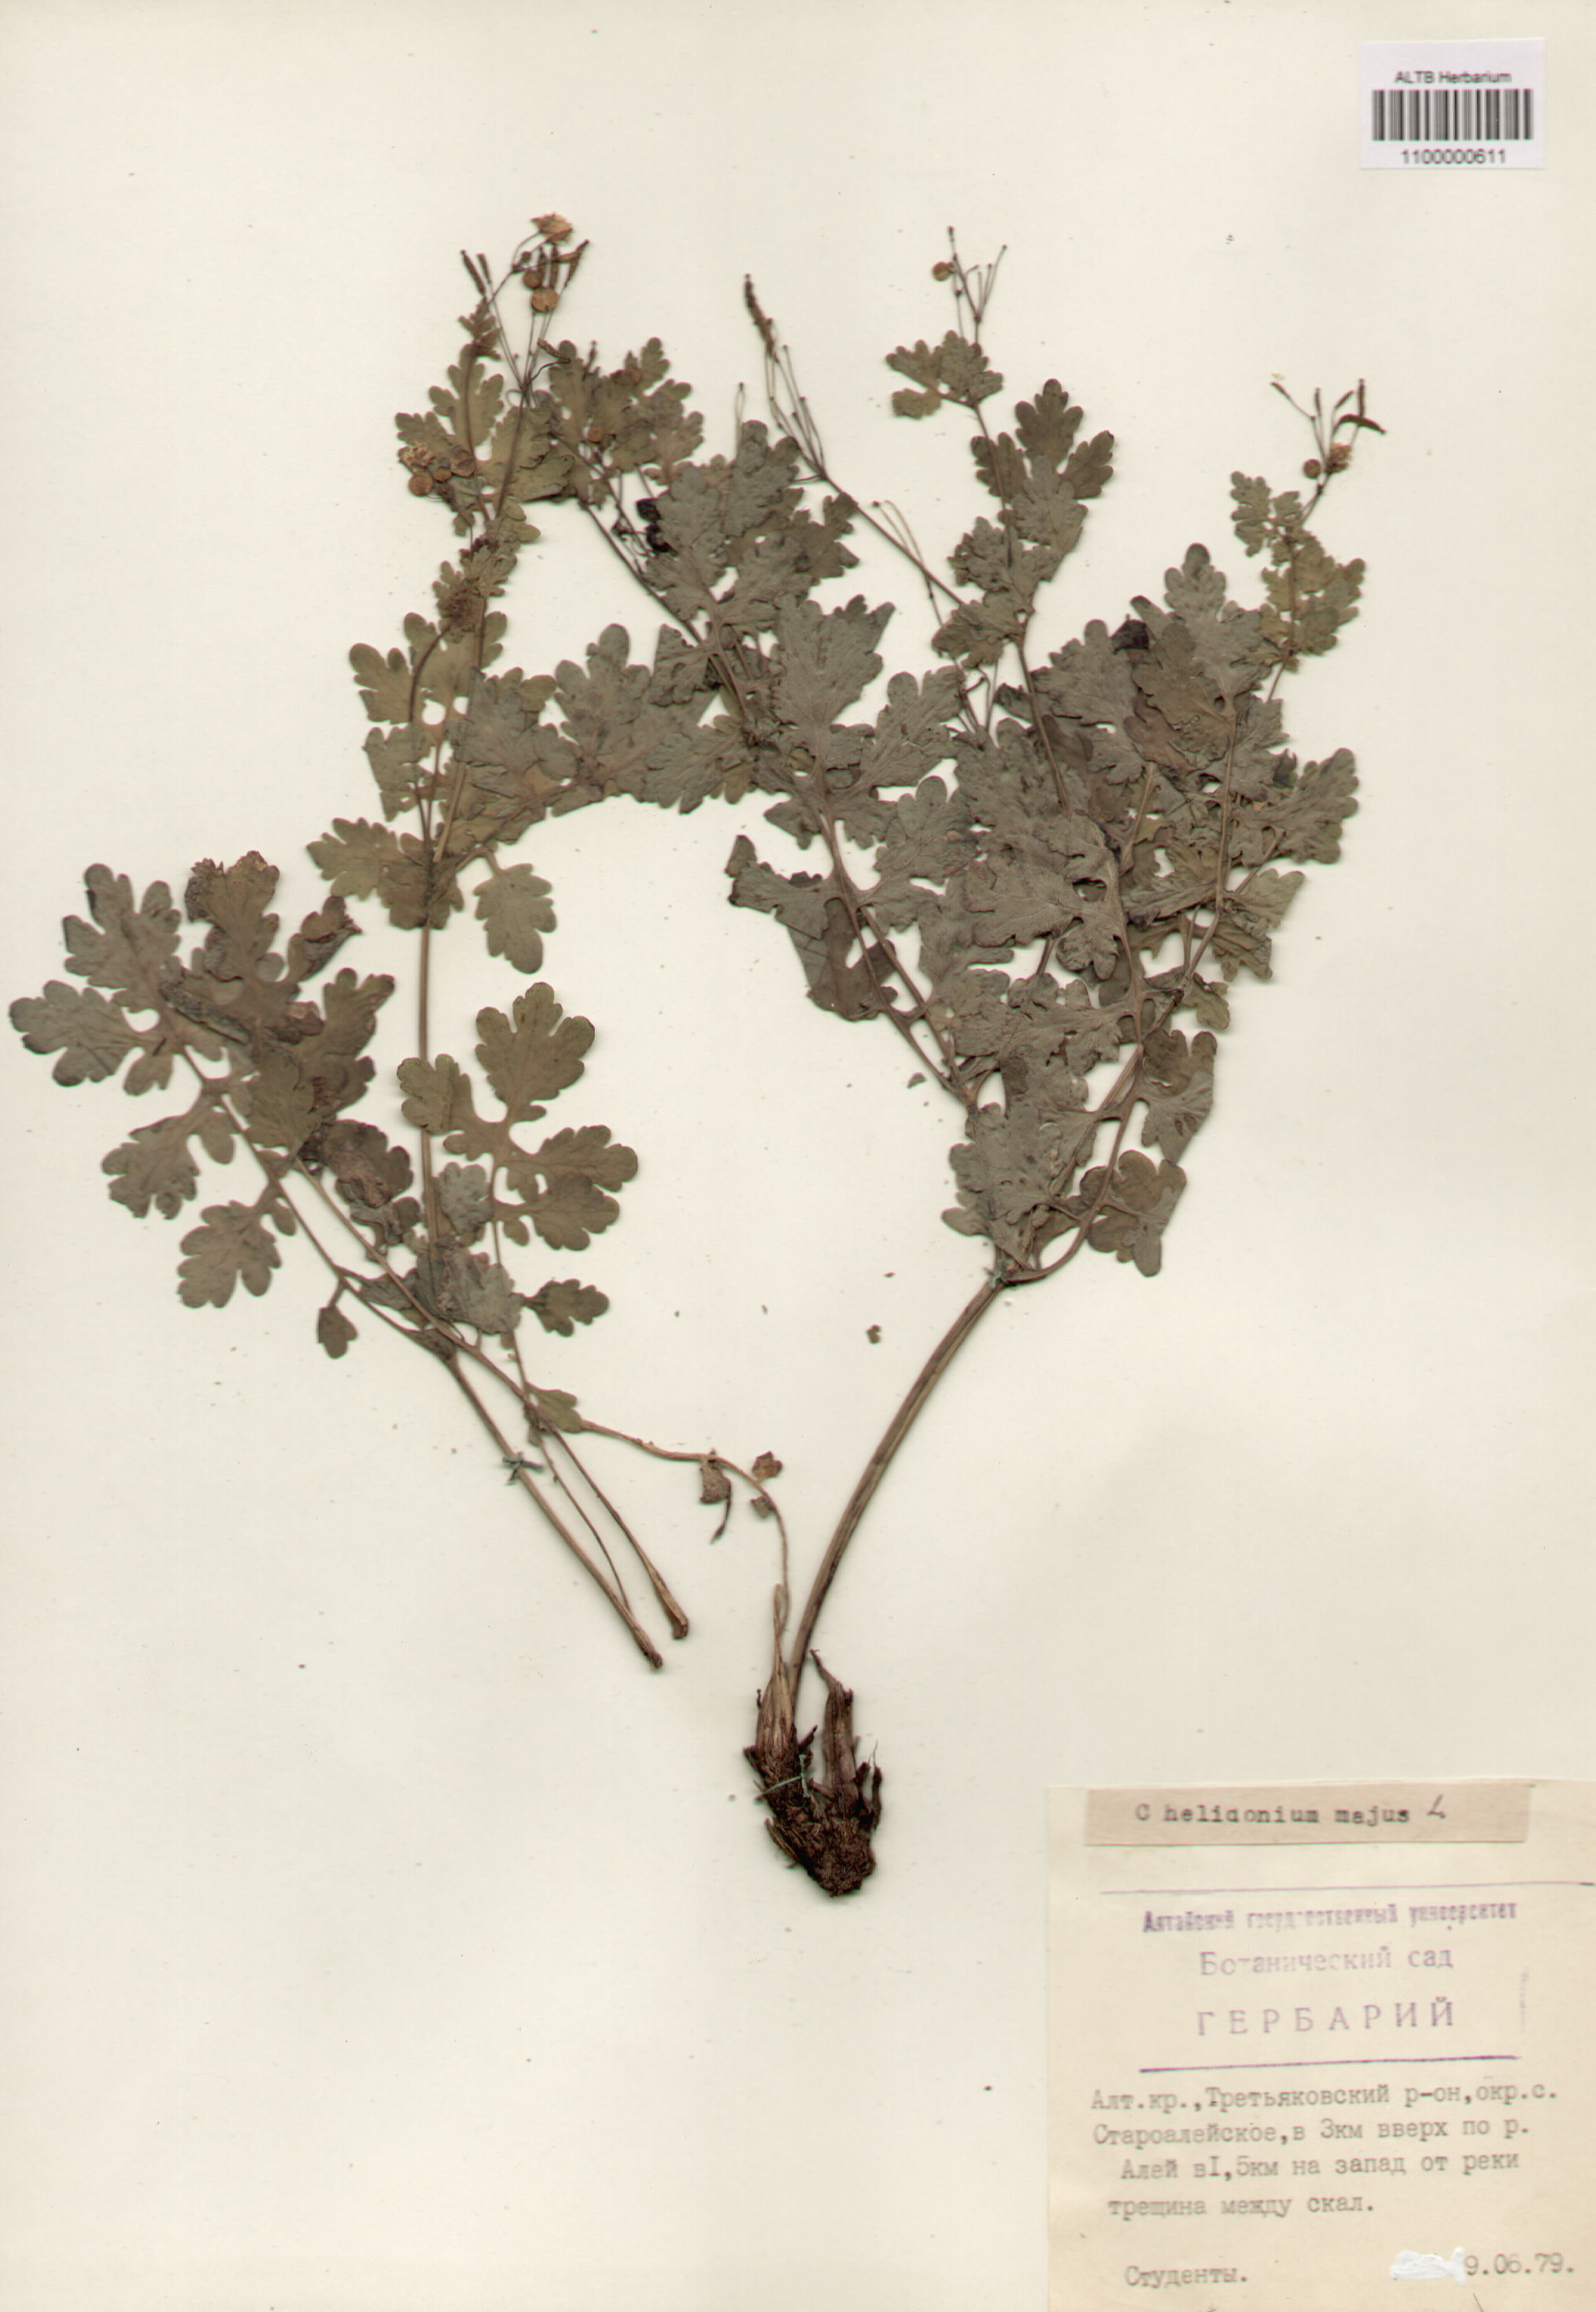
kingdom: Plantae
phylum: Tracheophyta
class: Magnoliopsida
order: Ranunculales
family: Papaveraceae
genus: Chelidonium
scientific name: Chelidonium majus
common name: Greater celandine
